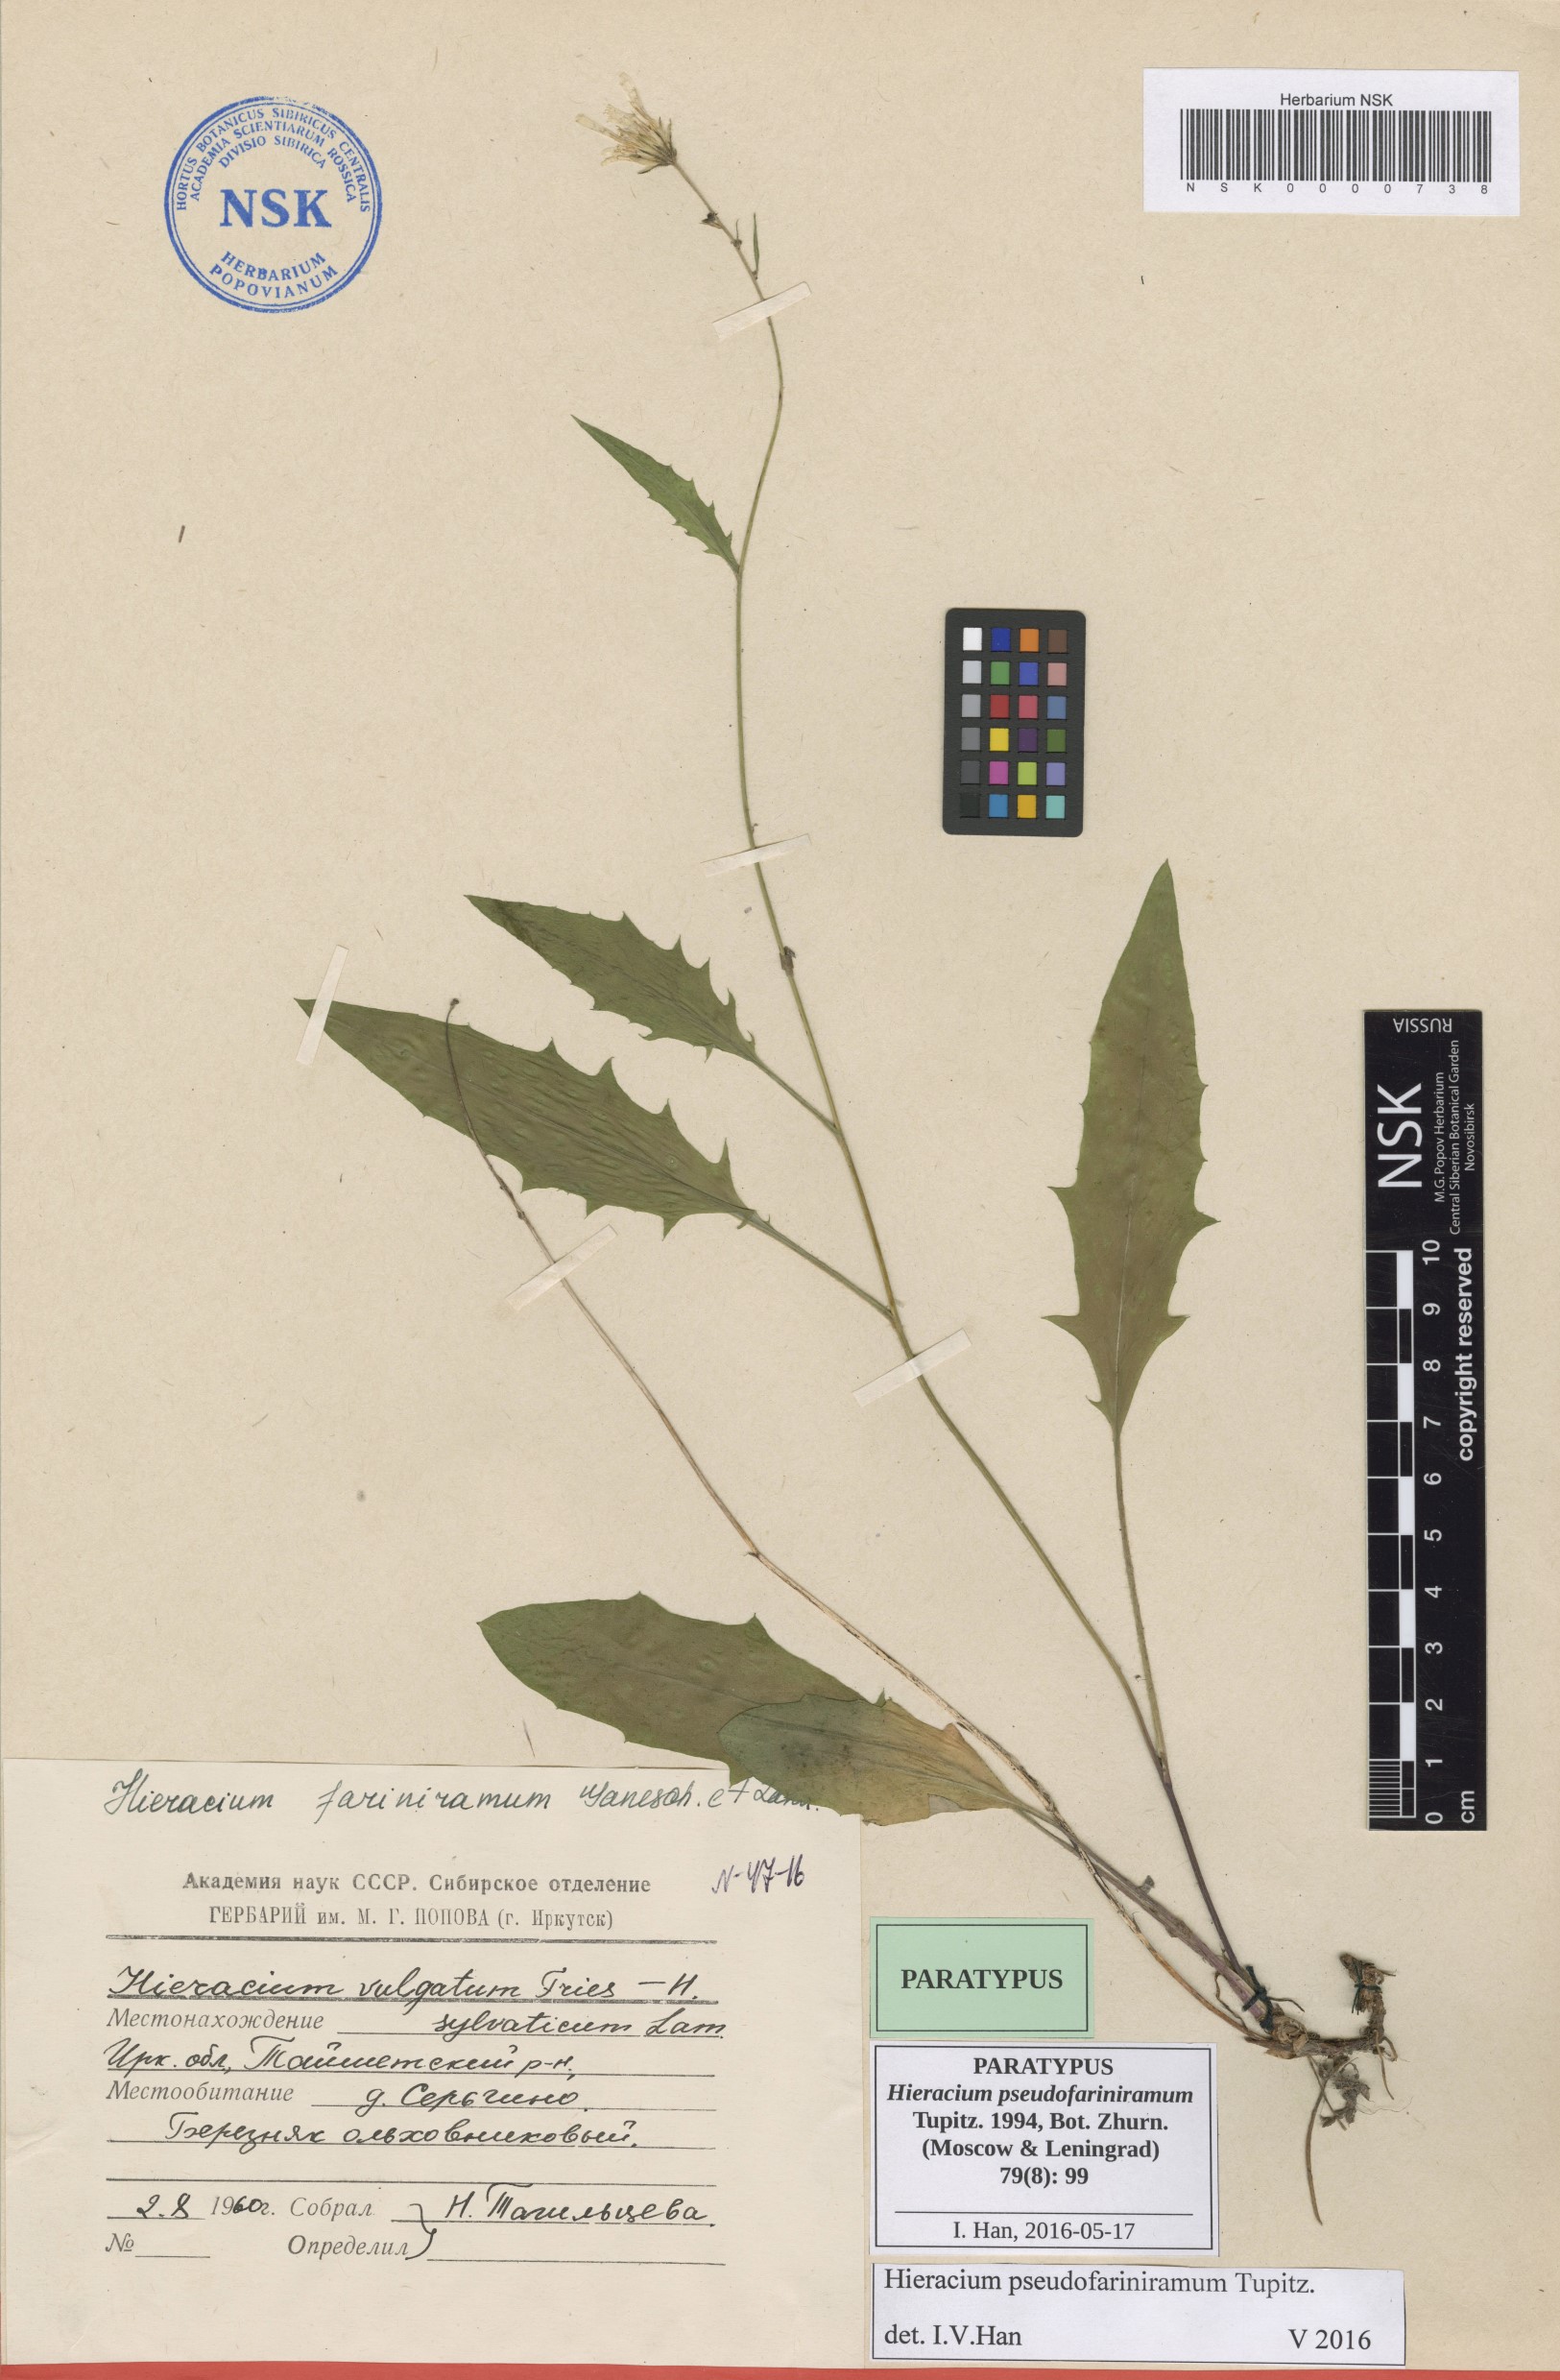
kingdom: Plantae
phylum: Tracheophyta
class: Magnoliopsida
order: Asterales
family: Asteraceae
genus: Hieracium
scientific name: Hieracium pseudofariniramum
